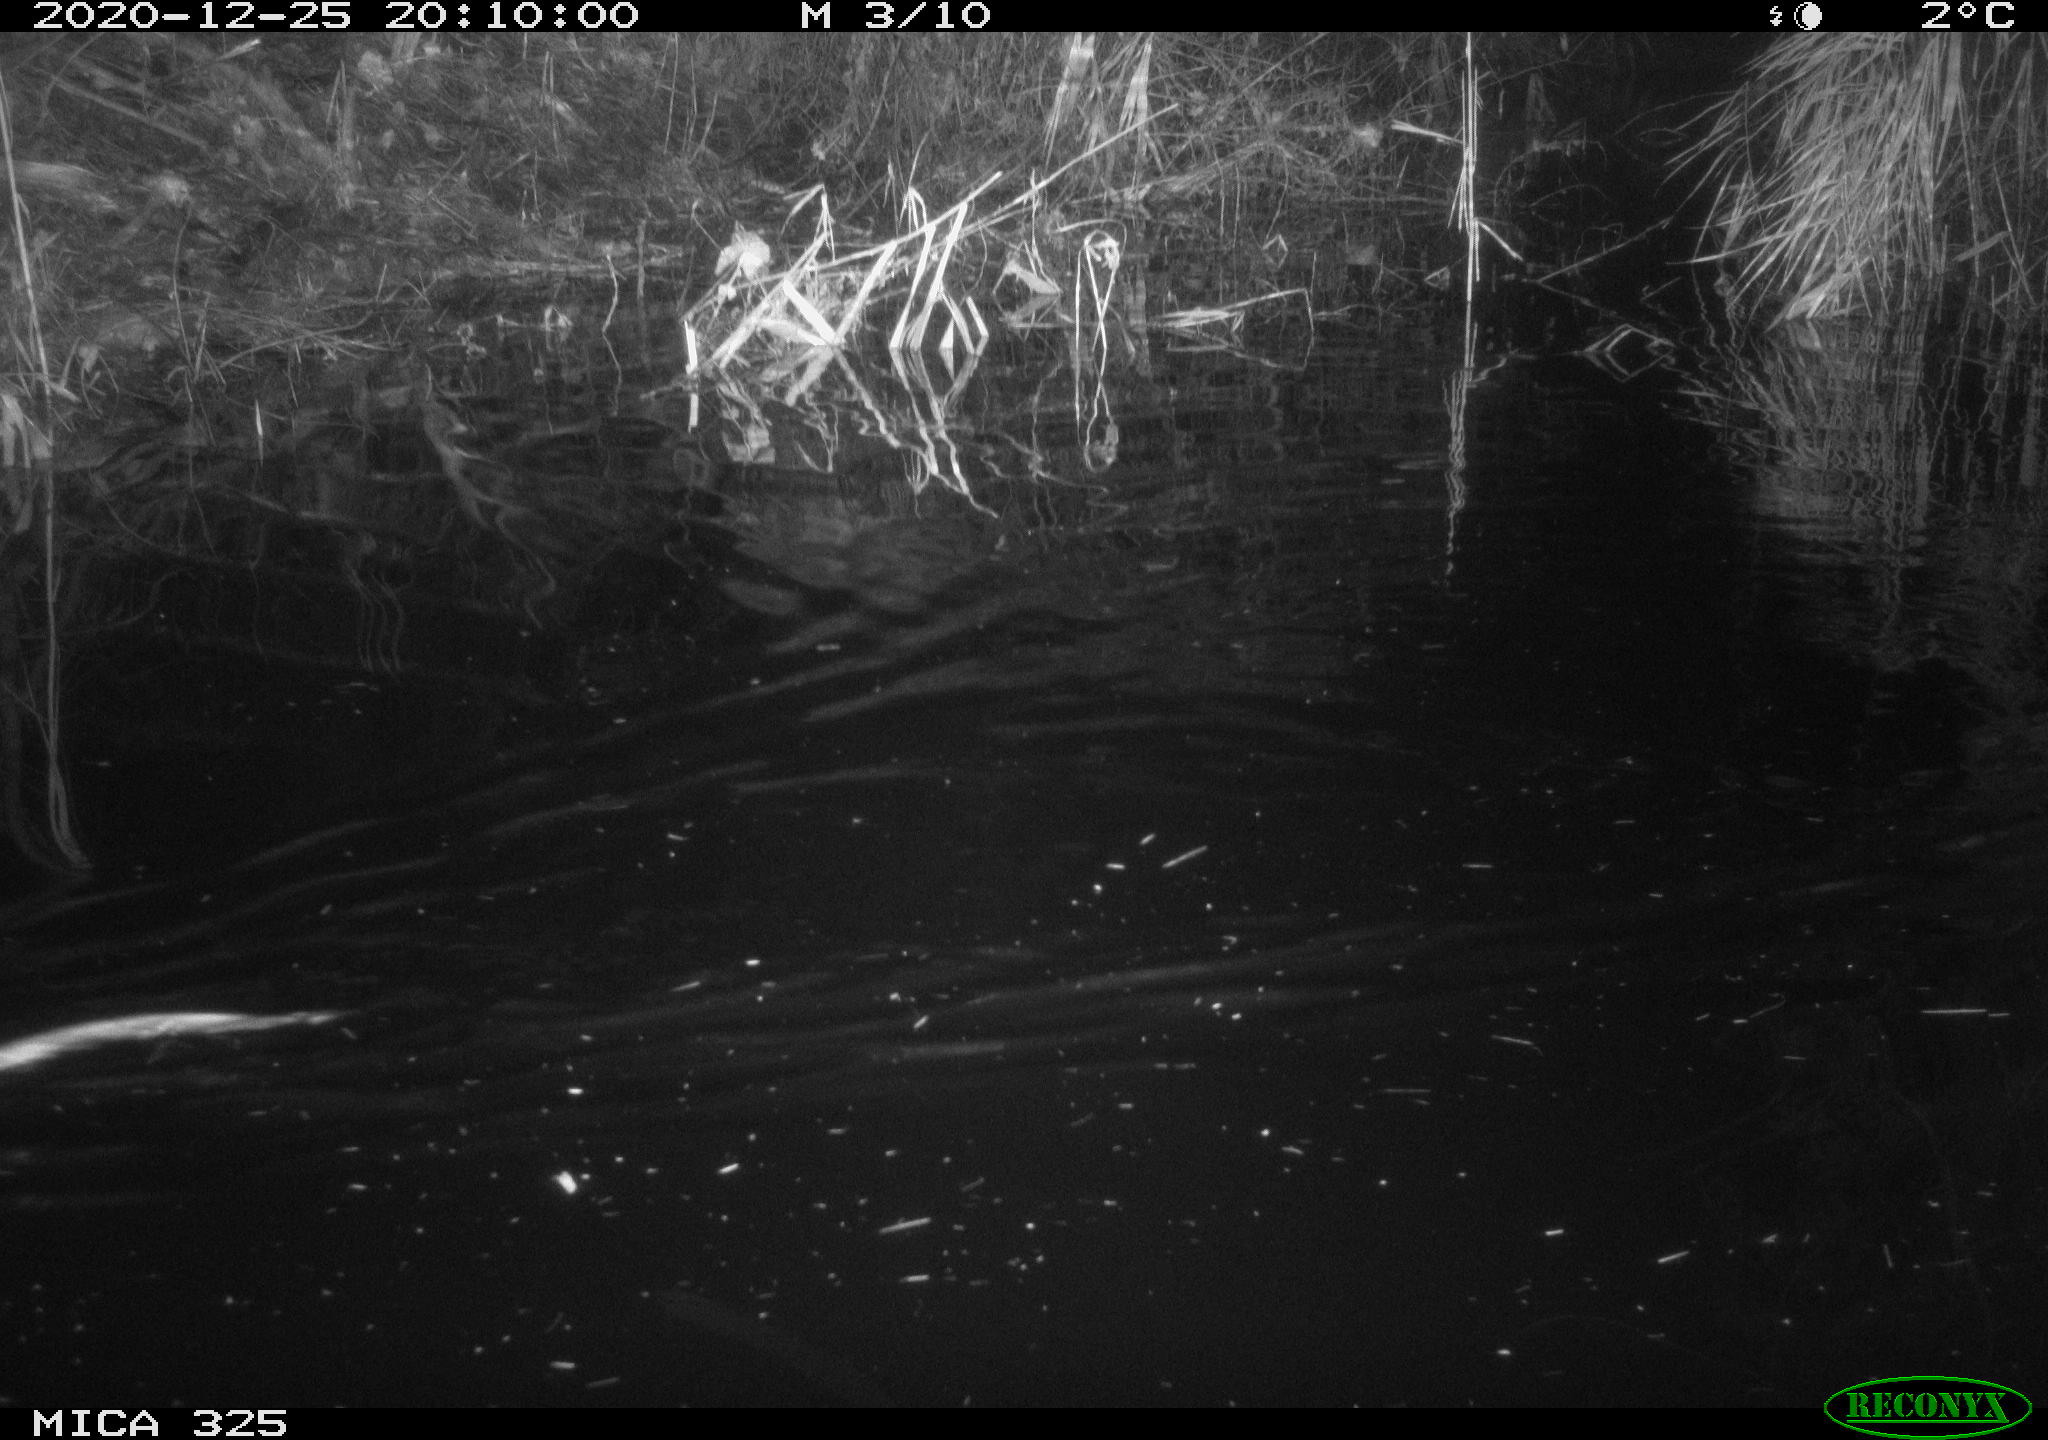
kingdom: Animalia
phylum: Chordata
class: Mammalia
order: Rodentia
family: Cricetidae
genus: Ondatra
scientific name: Ondatra zibethicus
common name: Muskrat
